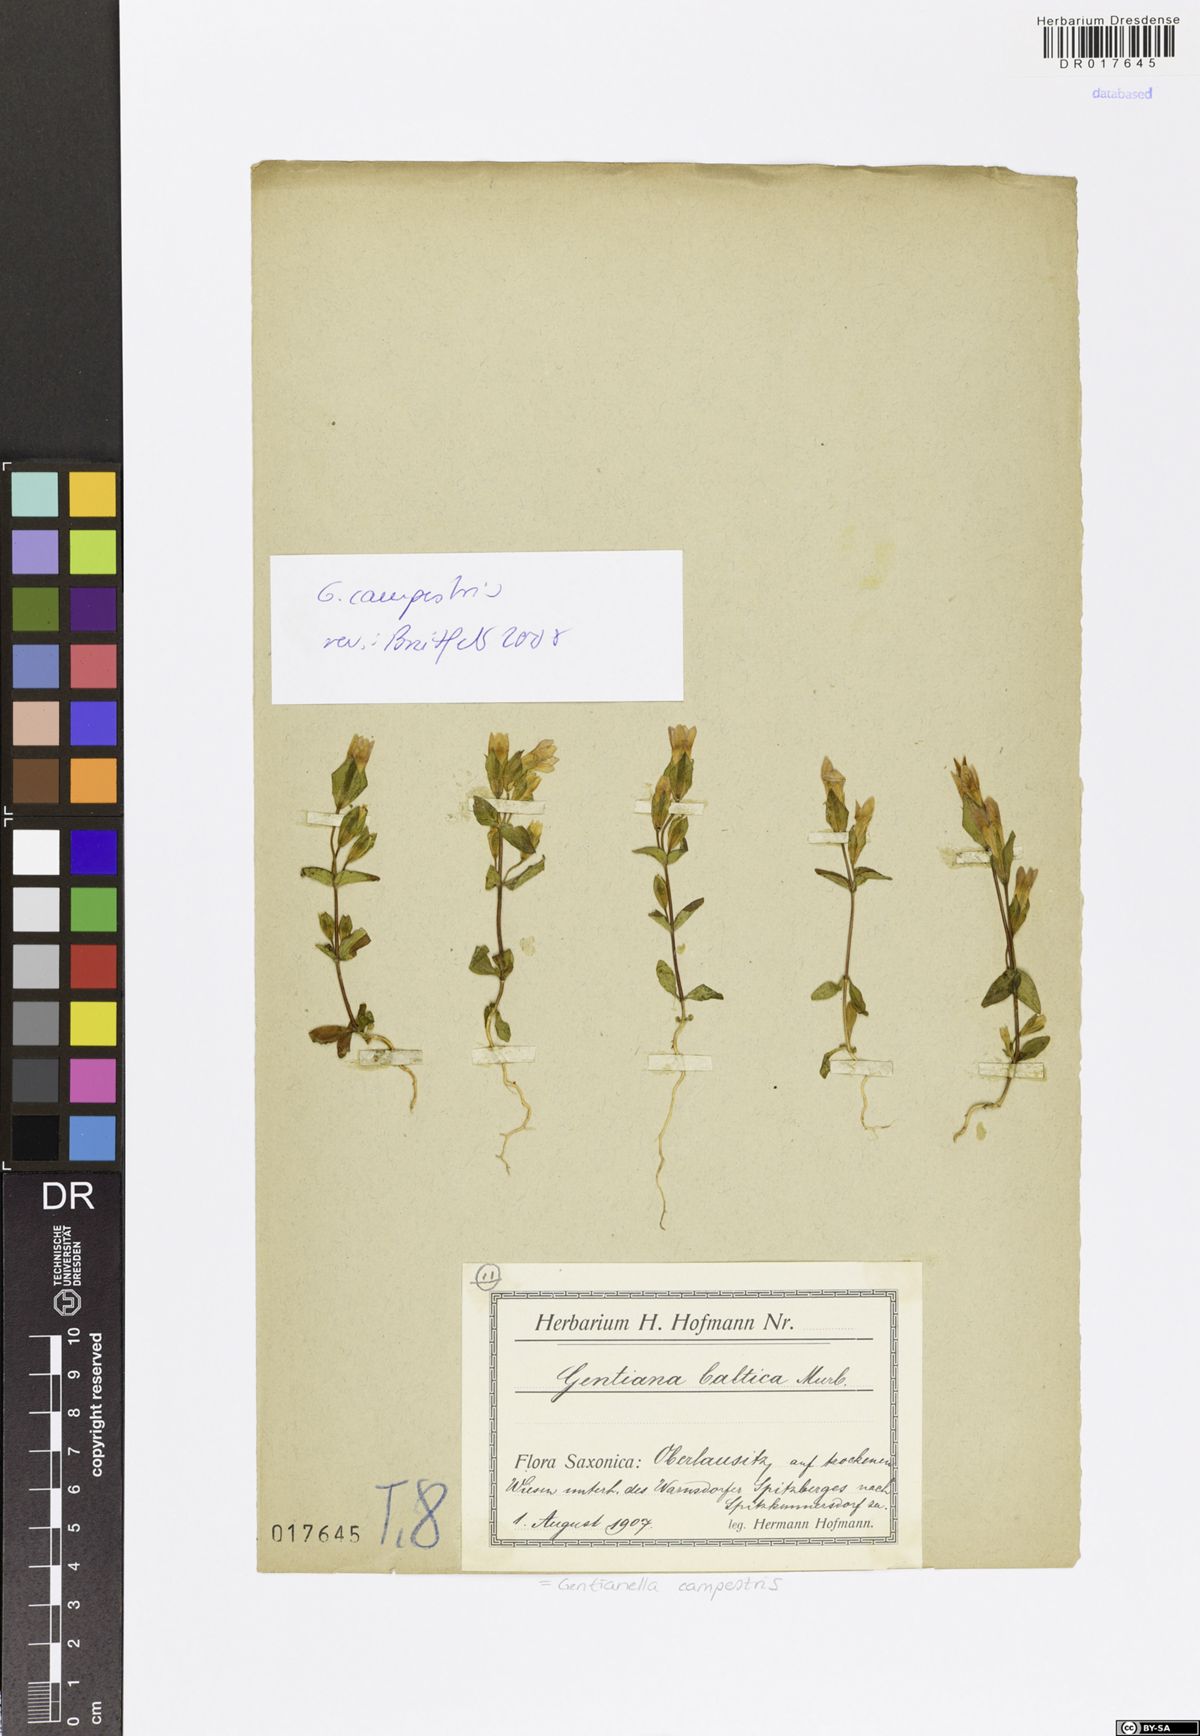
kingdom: Plantae
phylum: Tracheophyta
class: Magnoliopsida
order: Gentianales
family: Gentianaceae
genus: Gentianella
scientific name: Gentianella campestris
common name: Field gentian
